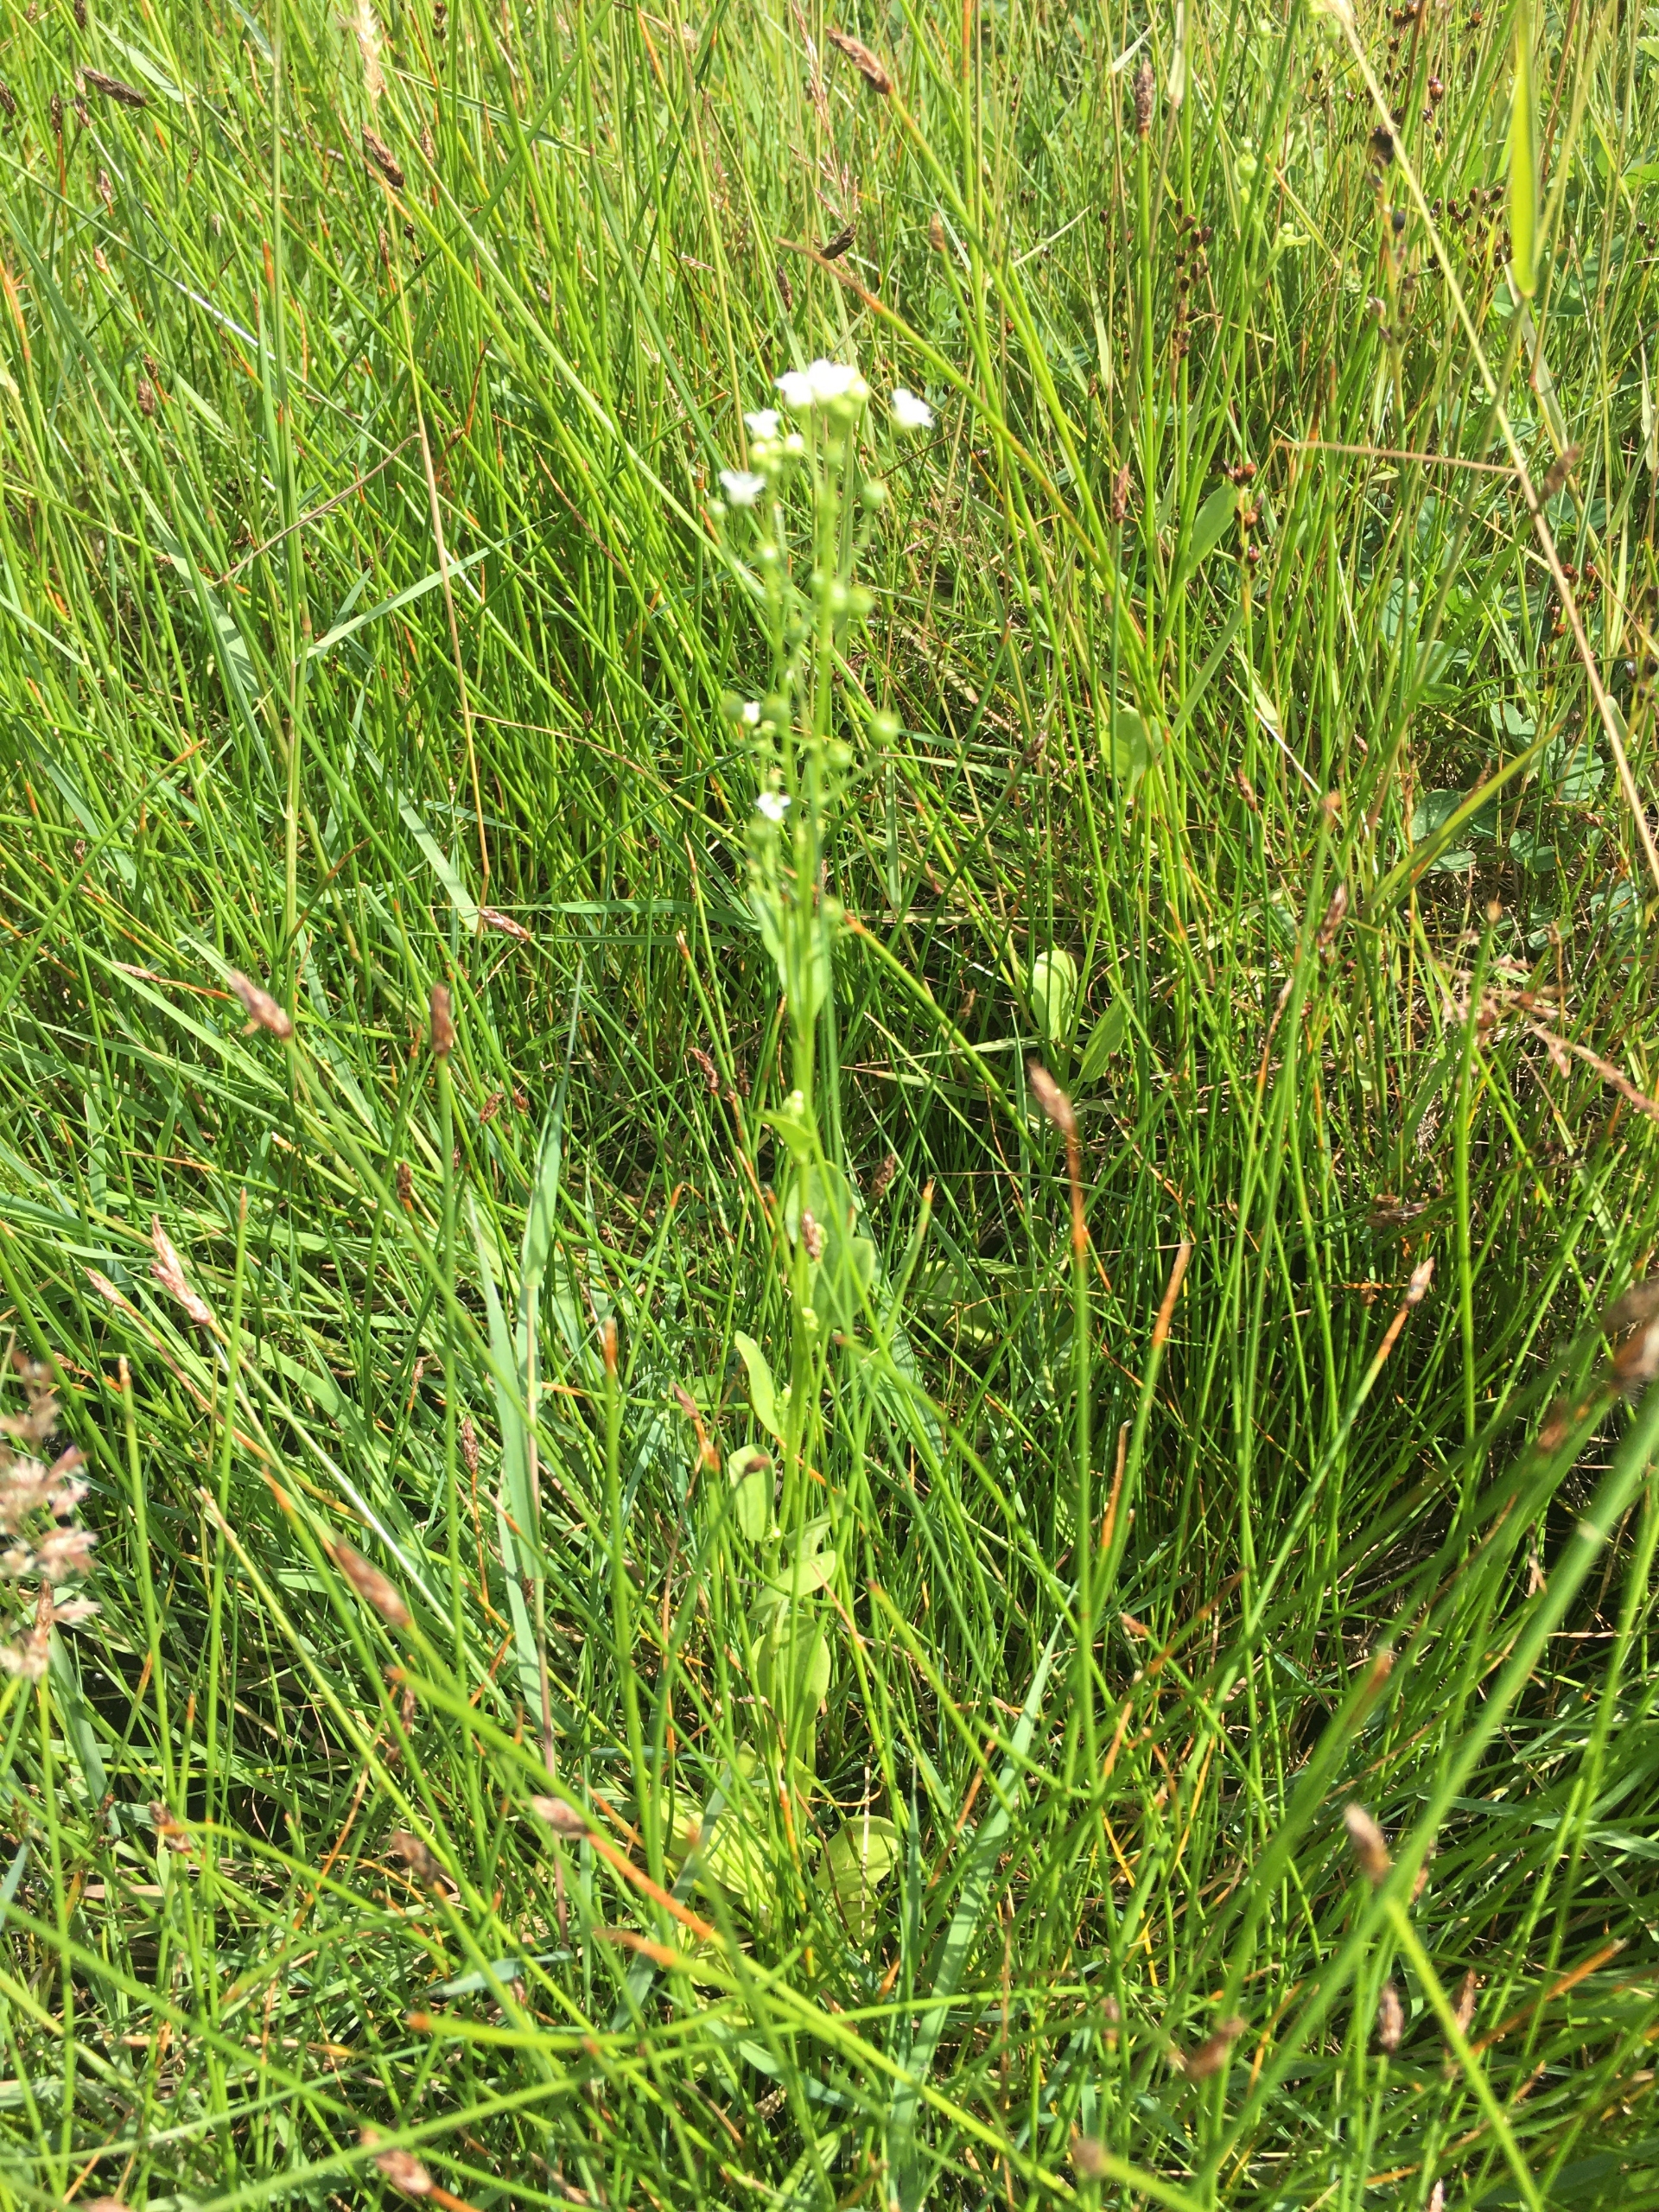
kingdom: Plantae
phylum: Tracheophyta
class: Magnoliopsida
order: Ericales
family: Primulaceae
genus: Samolus
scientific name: Samolus valerandi
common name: Samel
